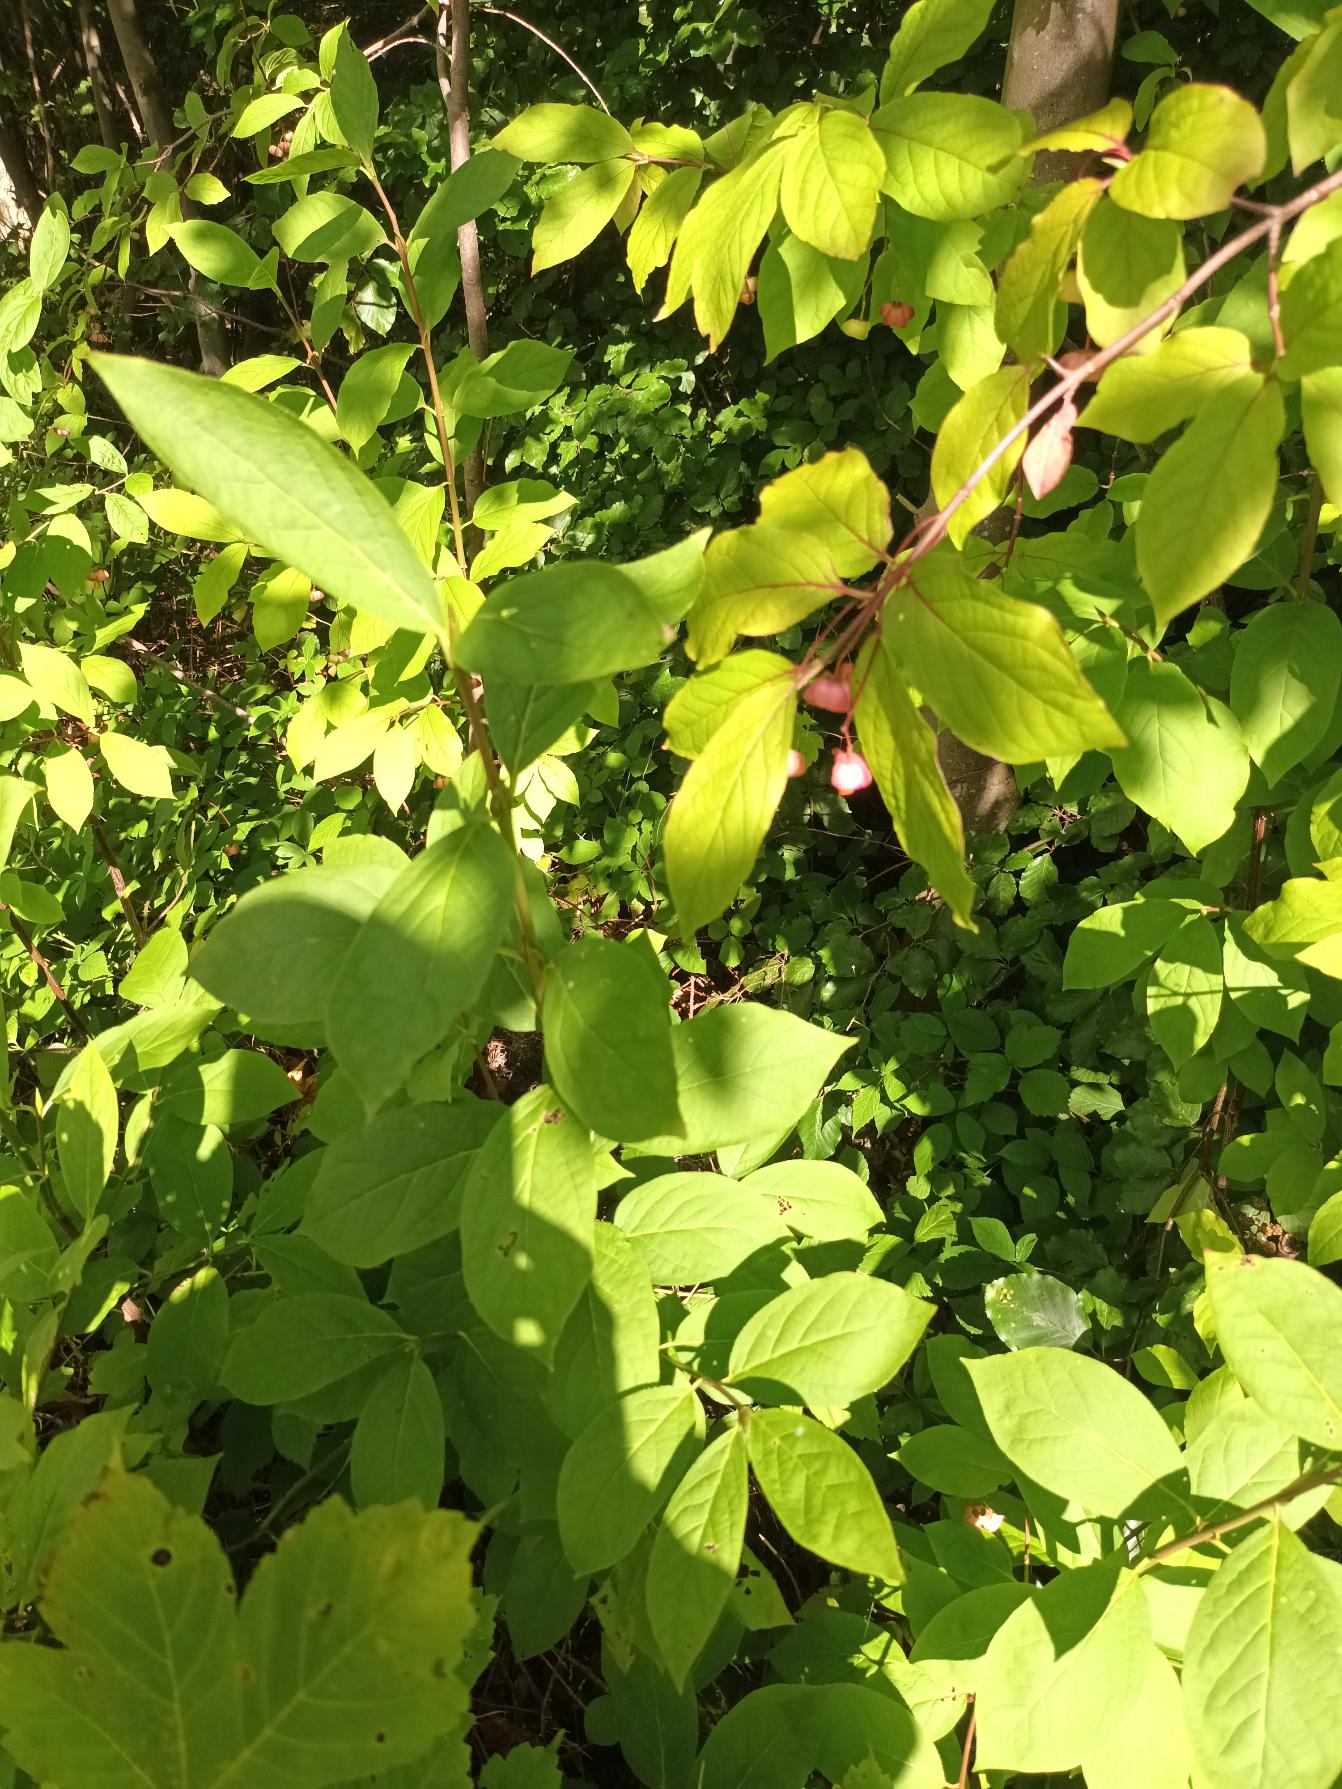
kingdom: Plantae
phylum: Tracheophyta
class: Magnoliopsida
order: Celastrales
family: Celastraceae
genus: Euonymus
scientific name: Euonymus latifolius
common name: Storbladet benved
